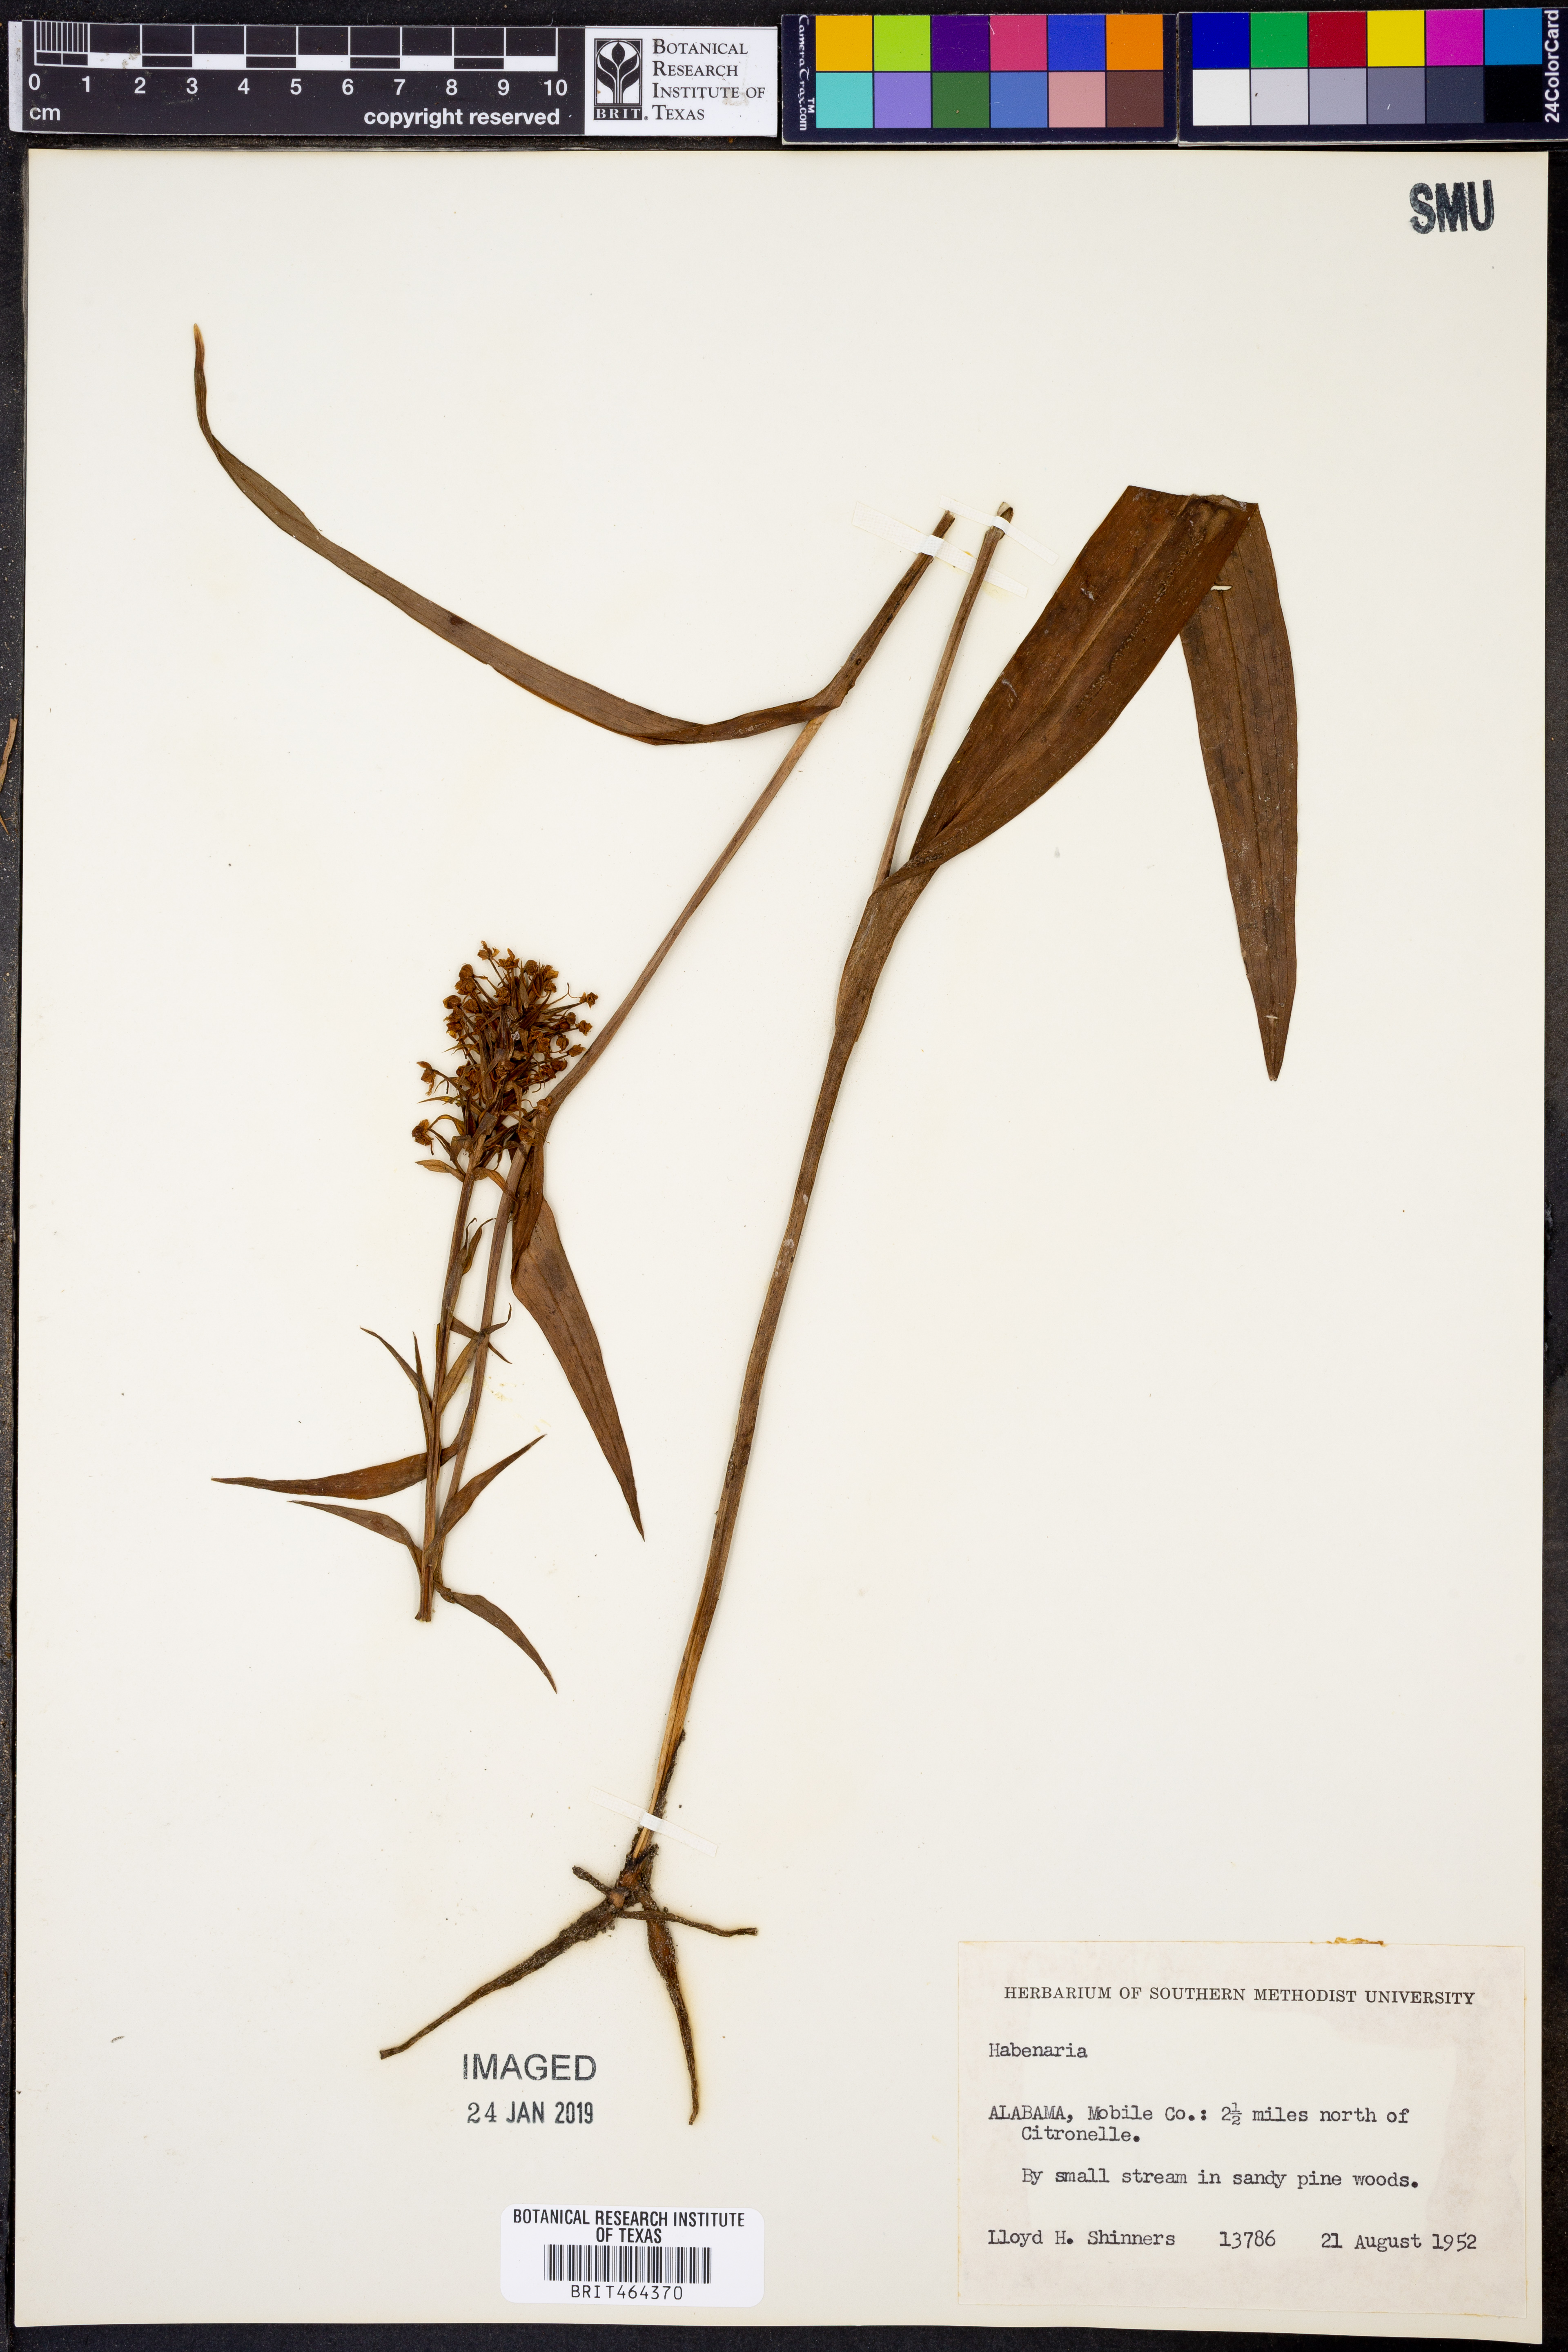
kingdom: Plantae
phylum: Tracheophyta
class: Liliopsida
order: Asparagales
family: Orchidaceae
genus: Habenaria
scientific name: Habenaria
